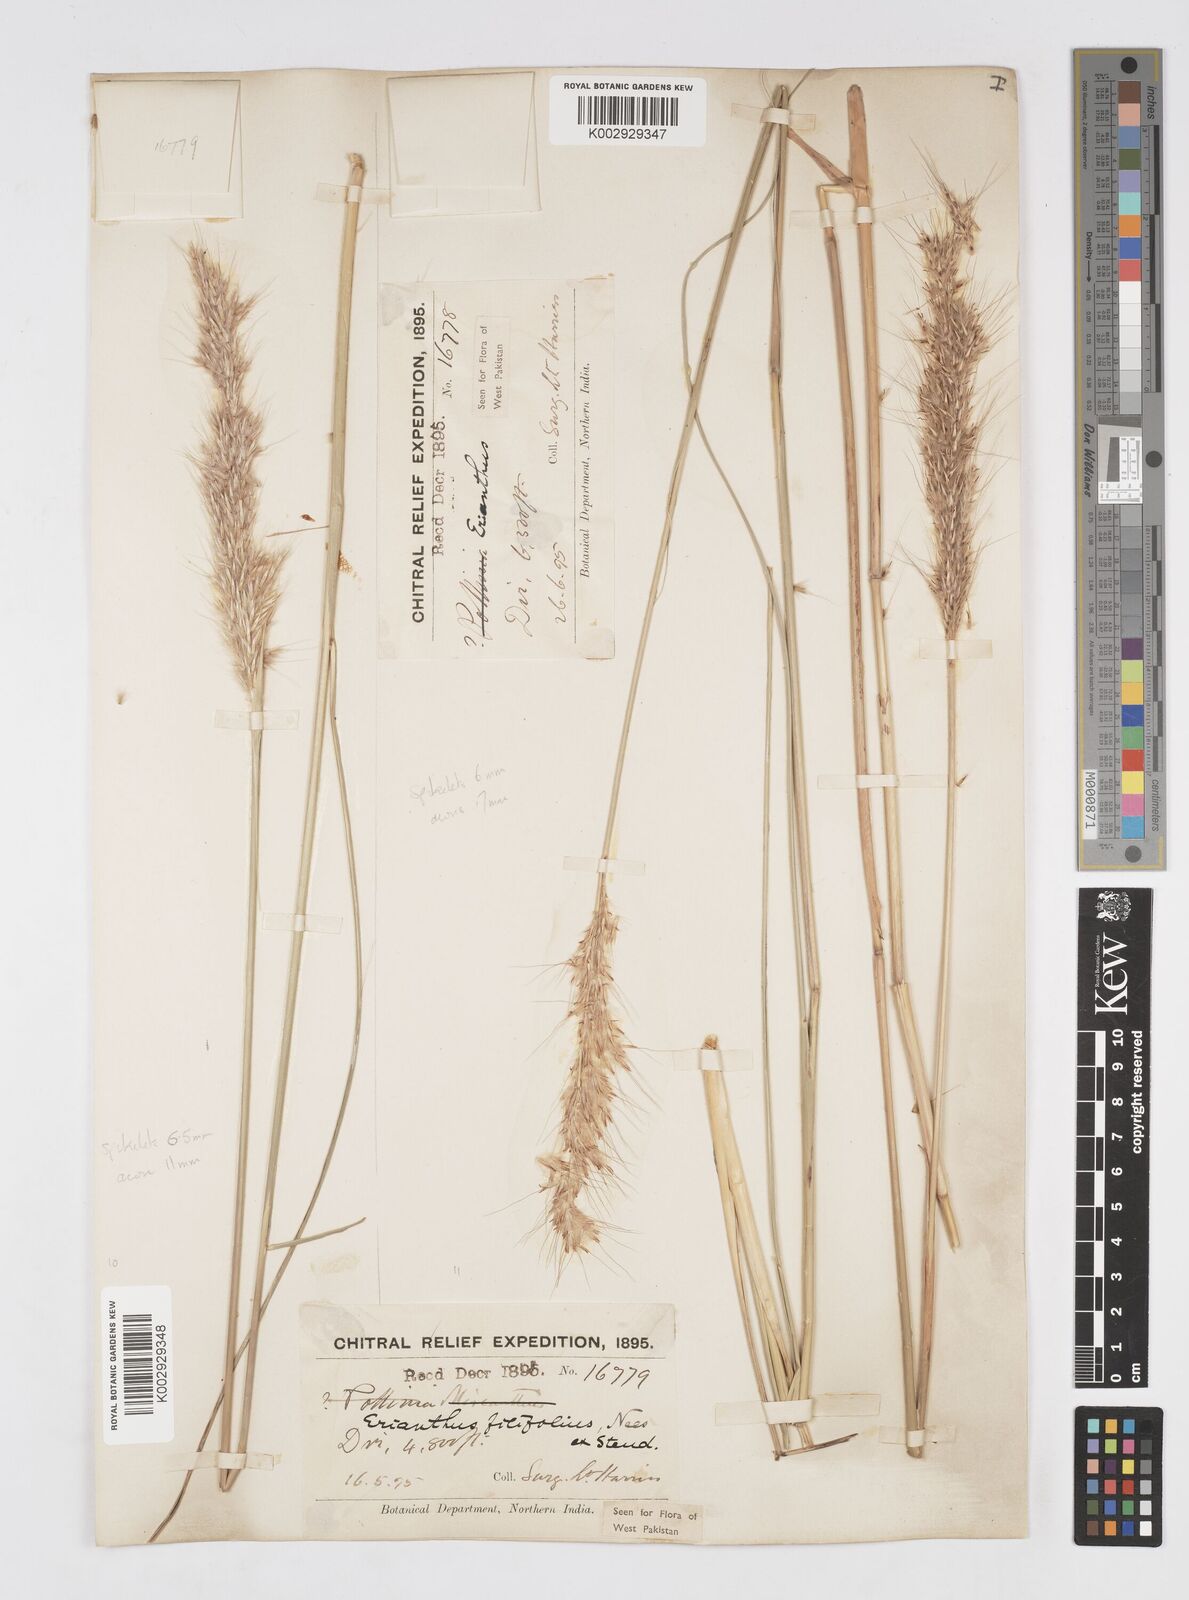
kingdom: Plantae
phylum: Tracheophyta
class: Liliopsida
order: Poales
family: Poaceae
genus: Saccharum
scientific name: Saccharum filifolium
